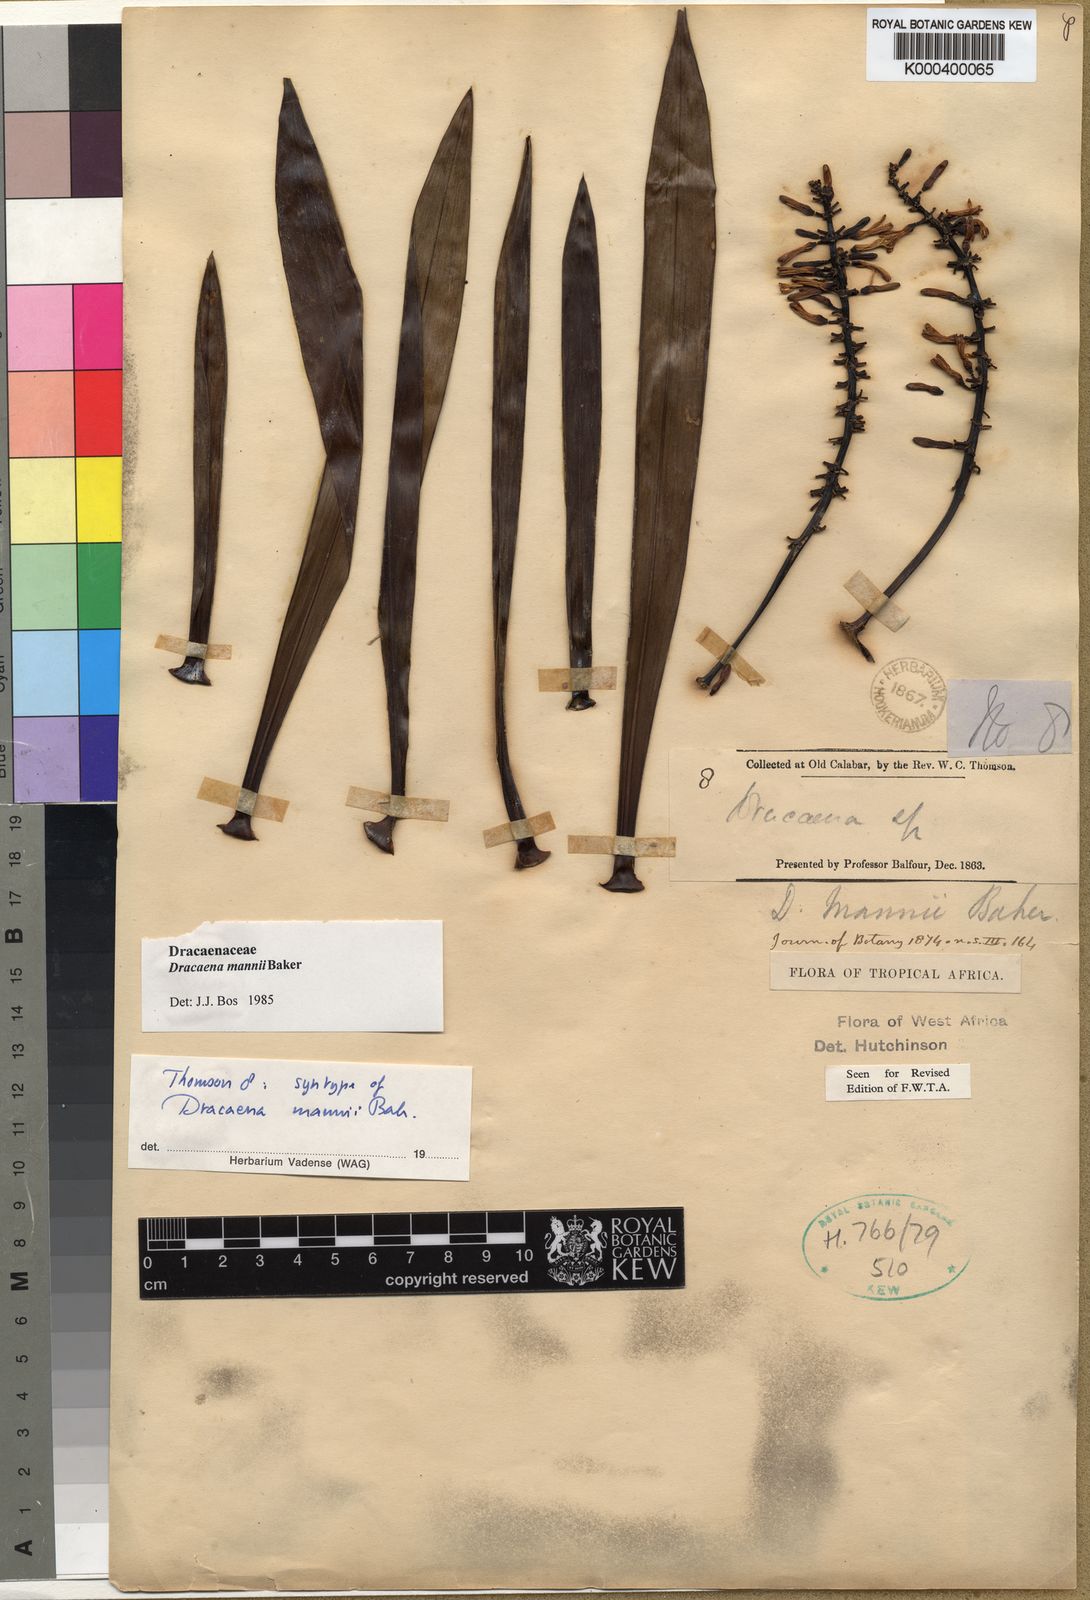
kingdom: Plantae
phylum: Tracheophyta
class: Liliopsida
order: Asparagales
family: Asparagaceae
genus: Dracaena
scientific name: Dracaena mannii
